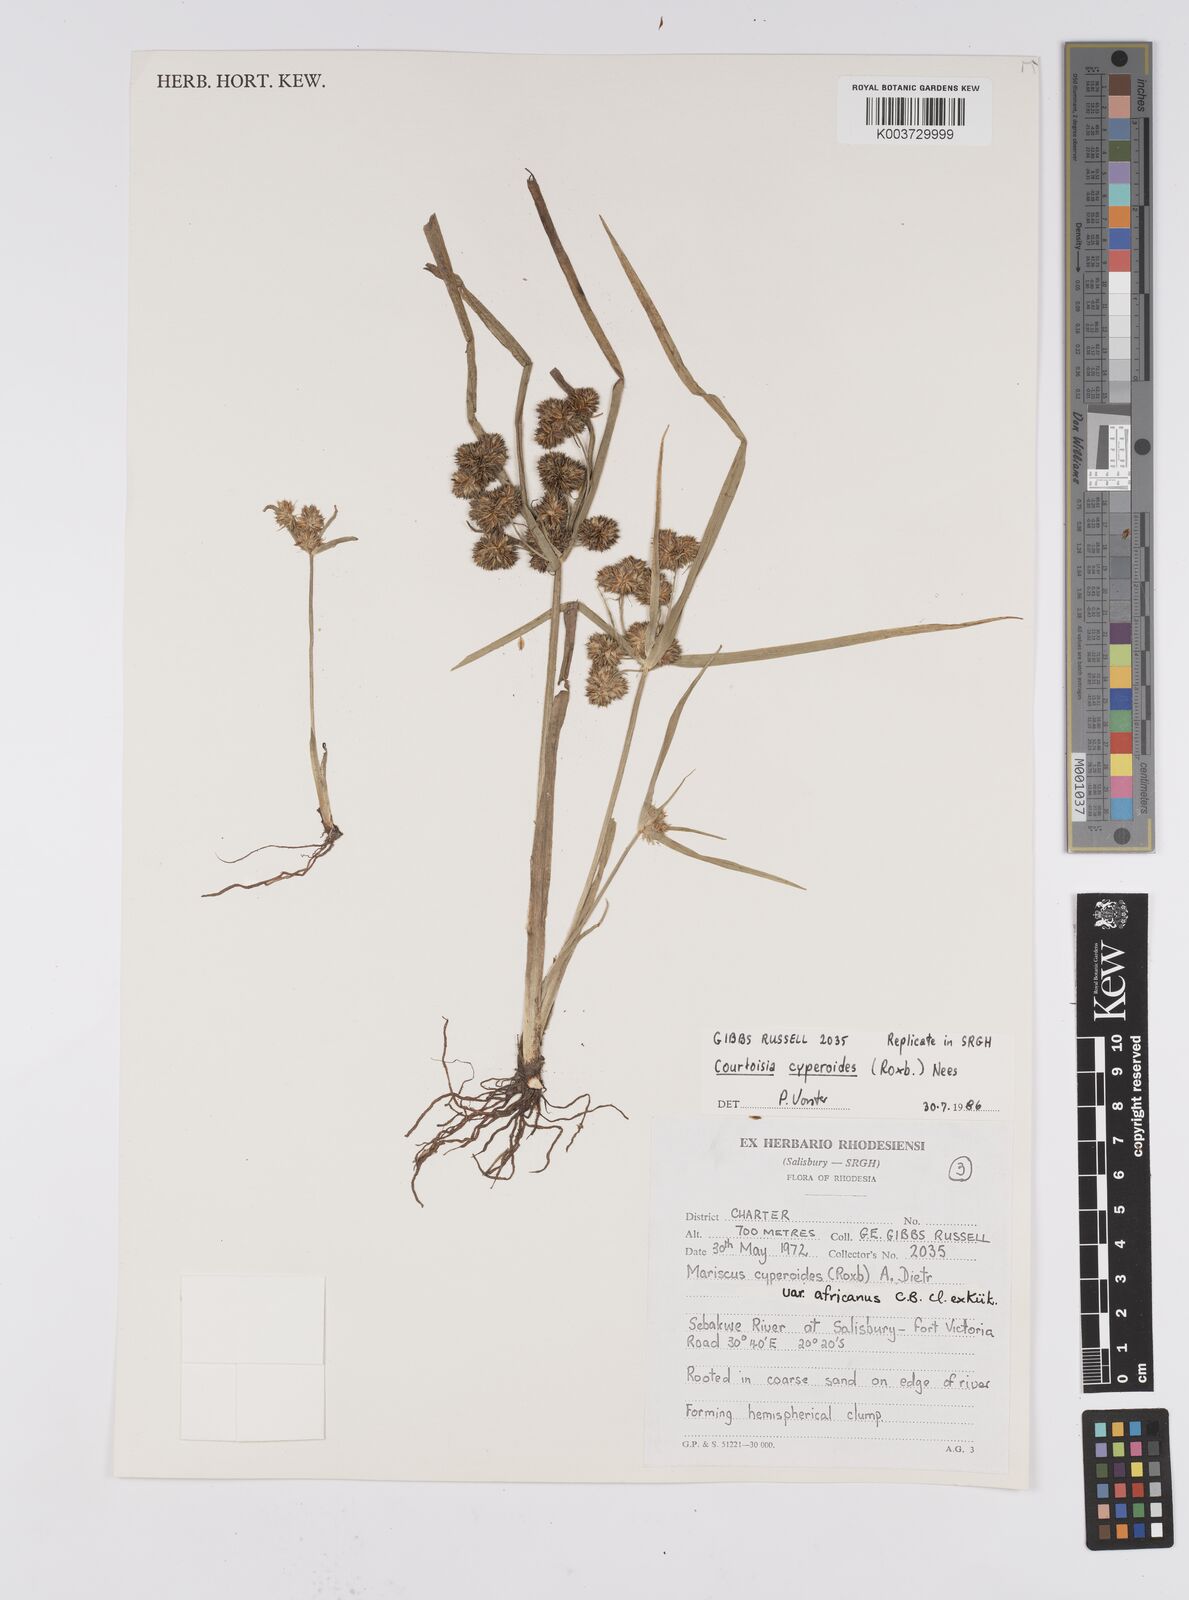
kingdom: Plantae
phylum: Tracheophyta
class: Liliopsida
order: Poales
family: Cyperaceae
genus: Cyperus
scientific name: Cyperus cyperoides
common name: Pacific island flat sedge
